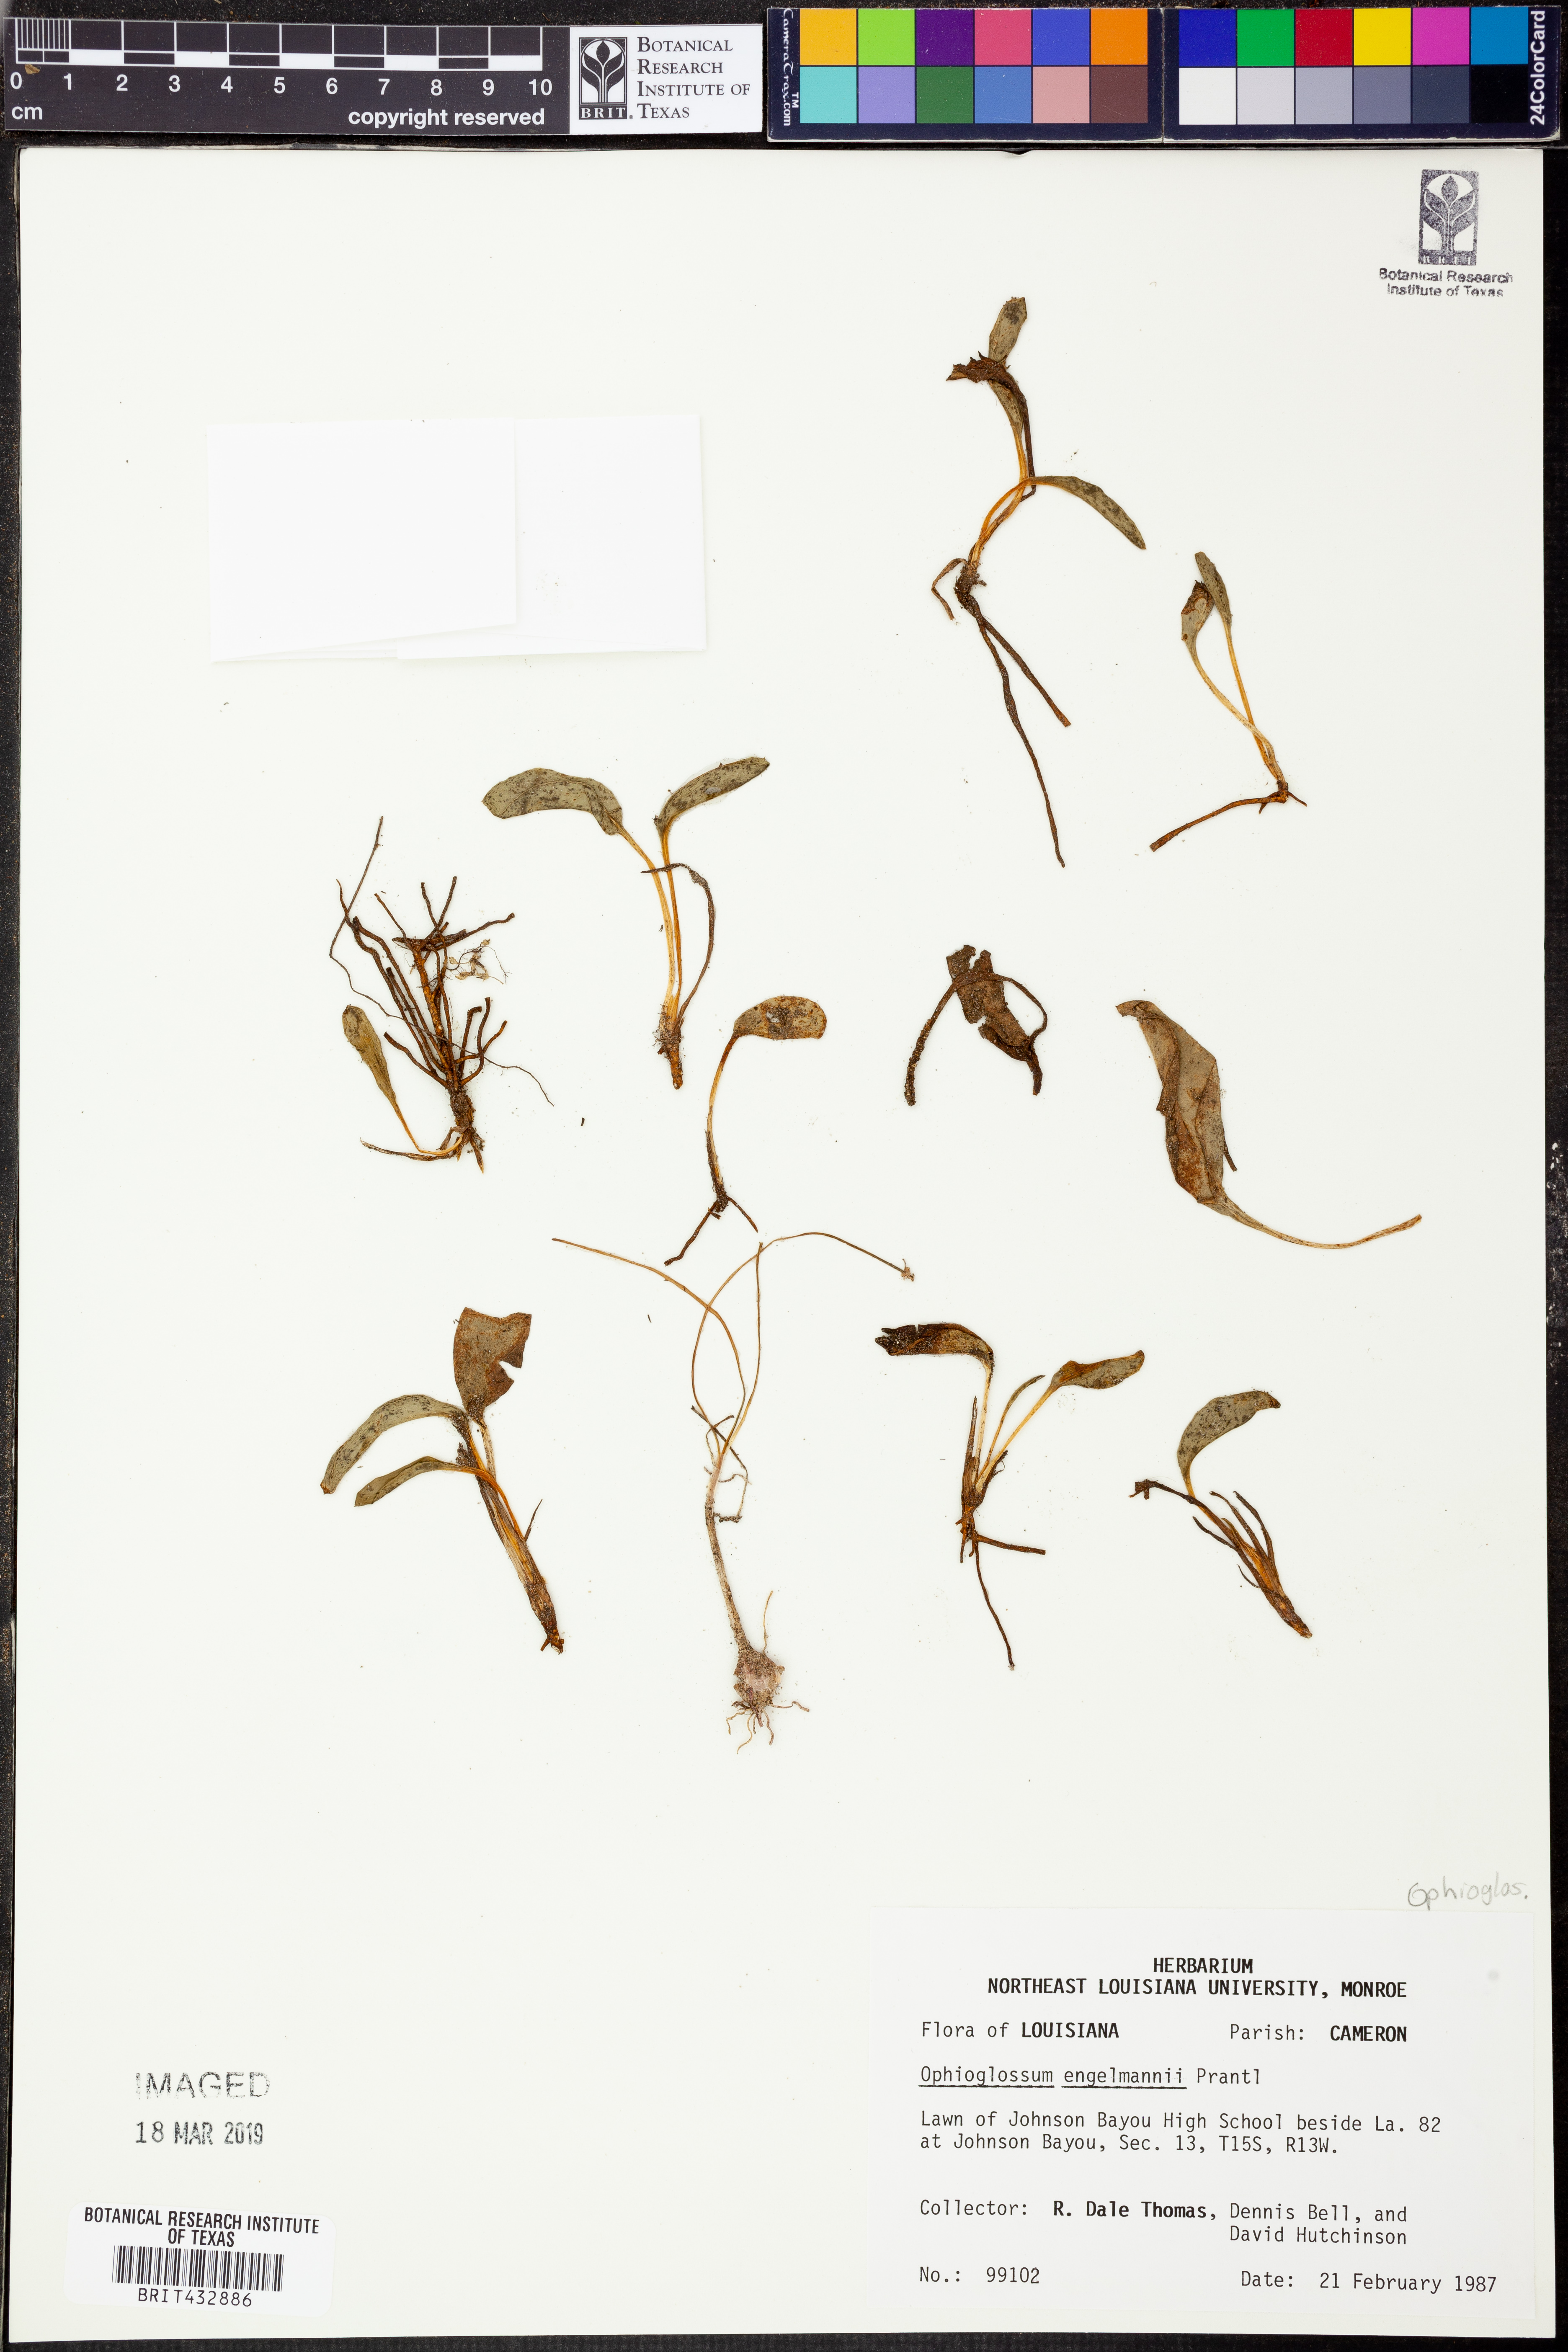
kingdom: Plantae
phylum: Tracheophyta
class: Polypodiopsida
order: Ophioglossales
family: Ophioglossaceae
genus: Ophioglossum
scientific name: Ophioglossum engelmannii
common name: Limestone adder's-tongue
